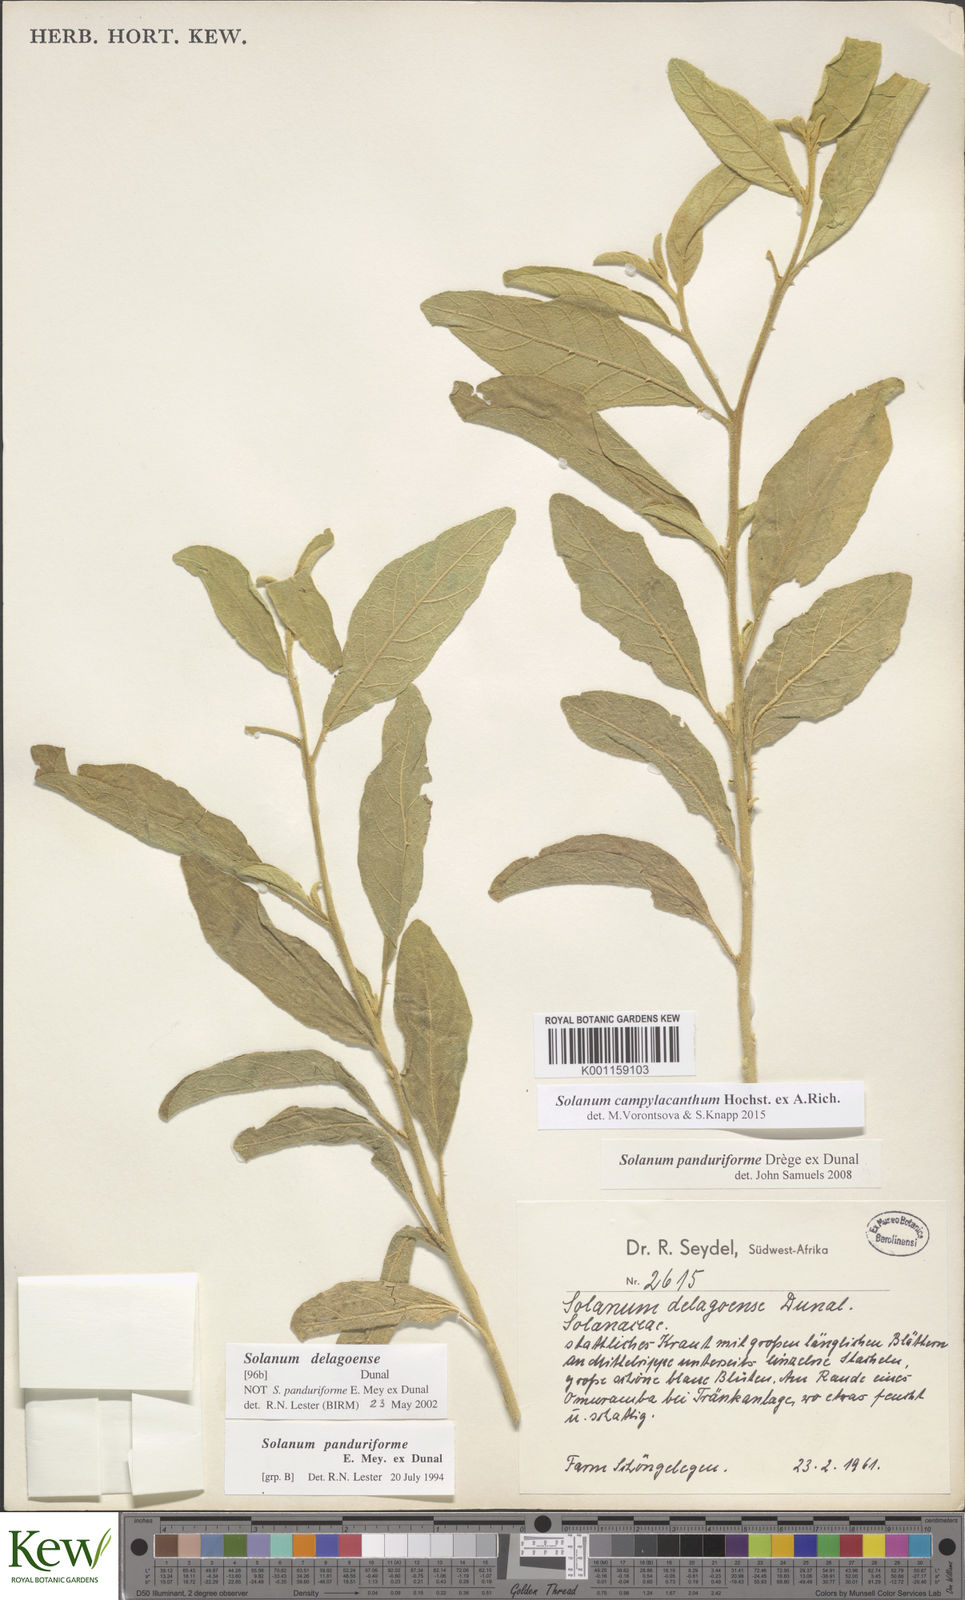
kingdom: Plantae
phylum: Tracheophyta
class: Magnoliopsida
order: Solanales
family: Solanaceae
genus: Solanum
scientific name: Solanum campylacanthum
